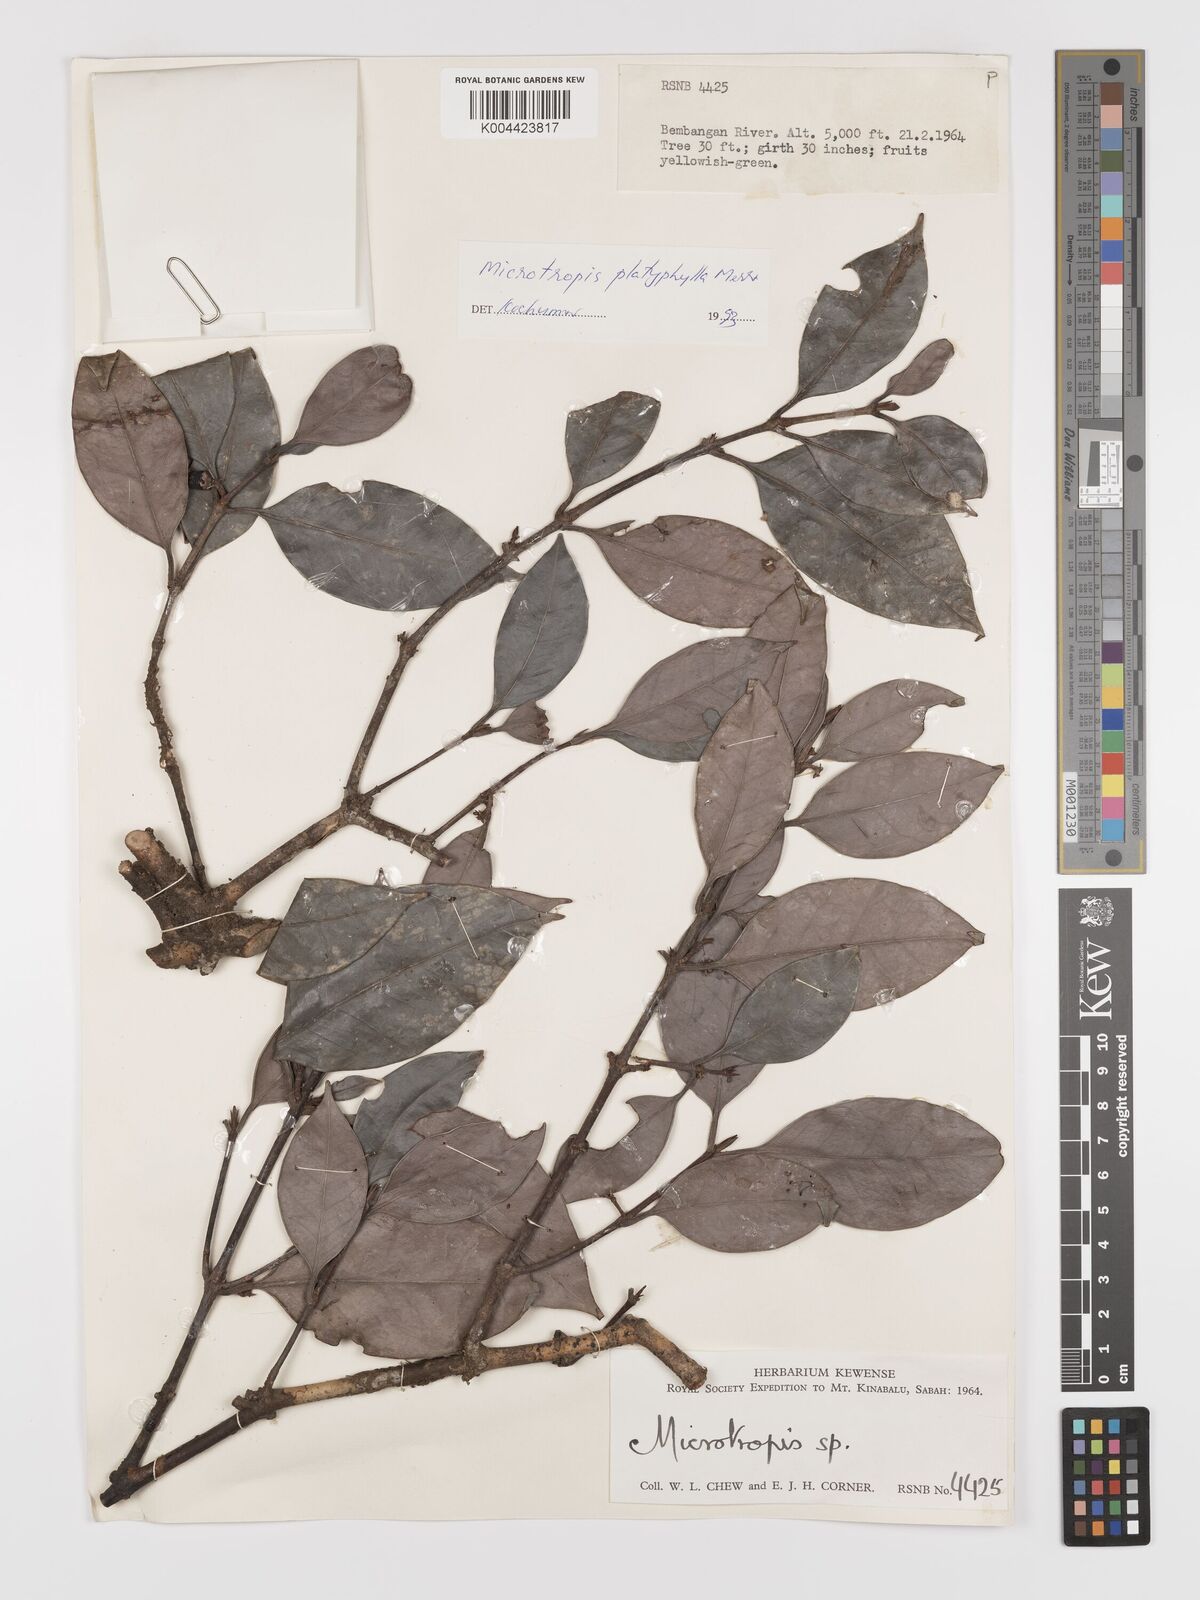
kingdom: Plantae
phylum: Tracheophyta
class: Magnoliopsida
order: Celastrales
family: Celastraceae
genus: Microtropis
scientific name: Microtropis platyphylla
